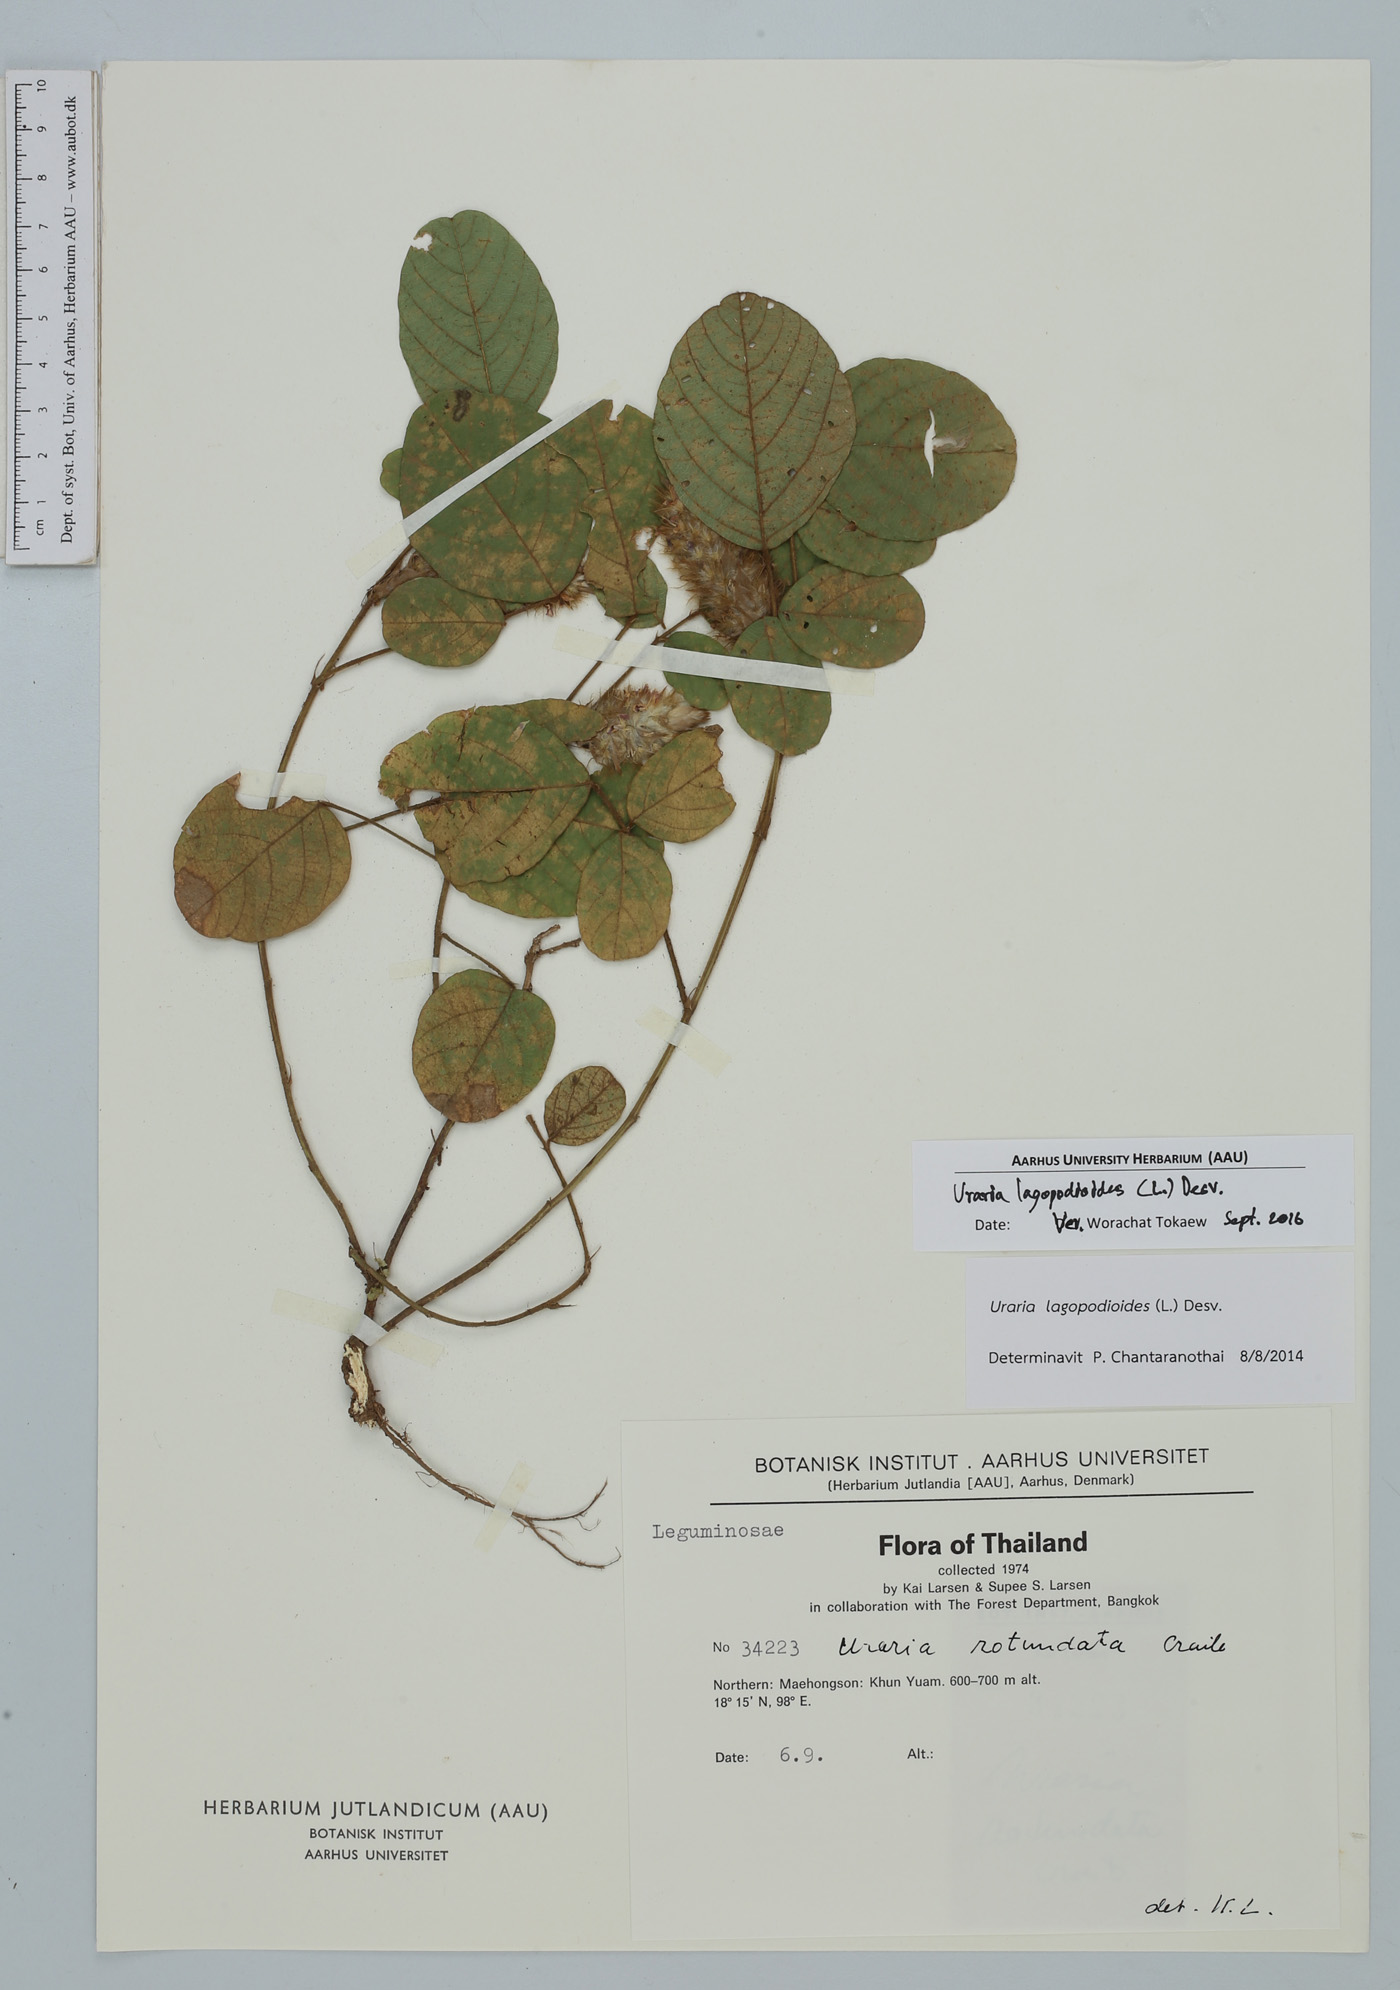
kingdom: Plantae
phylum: Tracheophyta
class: Magnoliopsida
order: Fabales
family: Fabaceae
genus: Uraria
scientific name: Uraria lagopodioides
